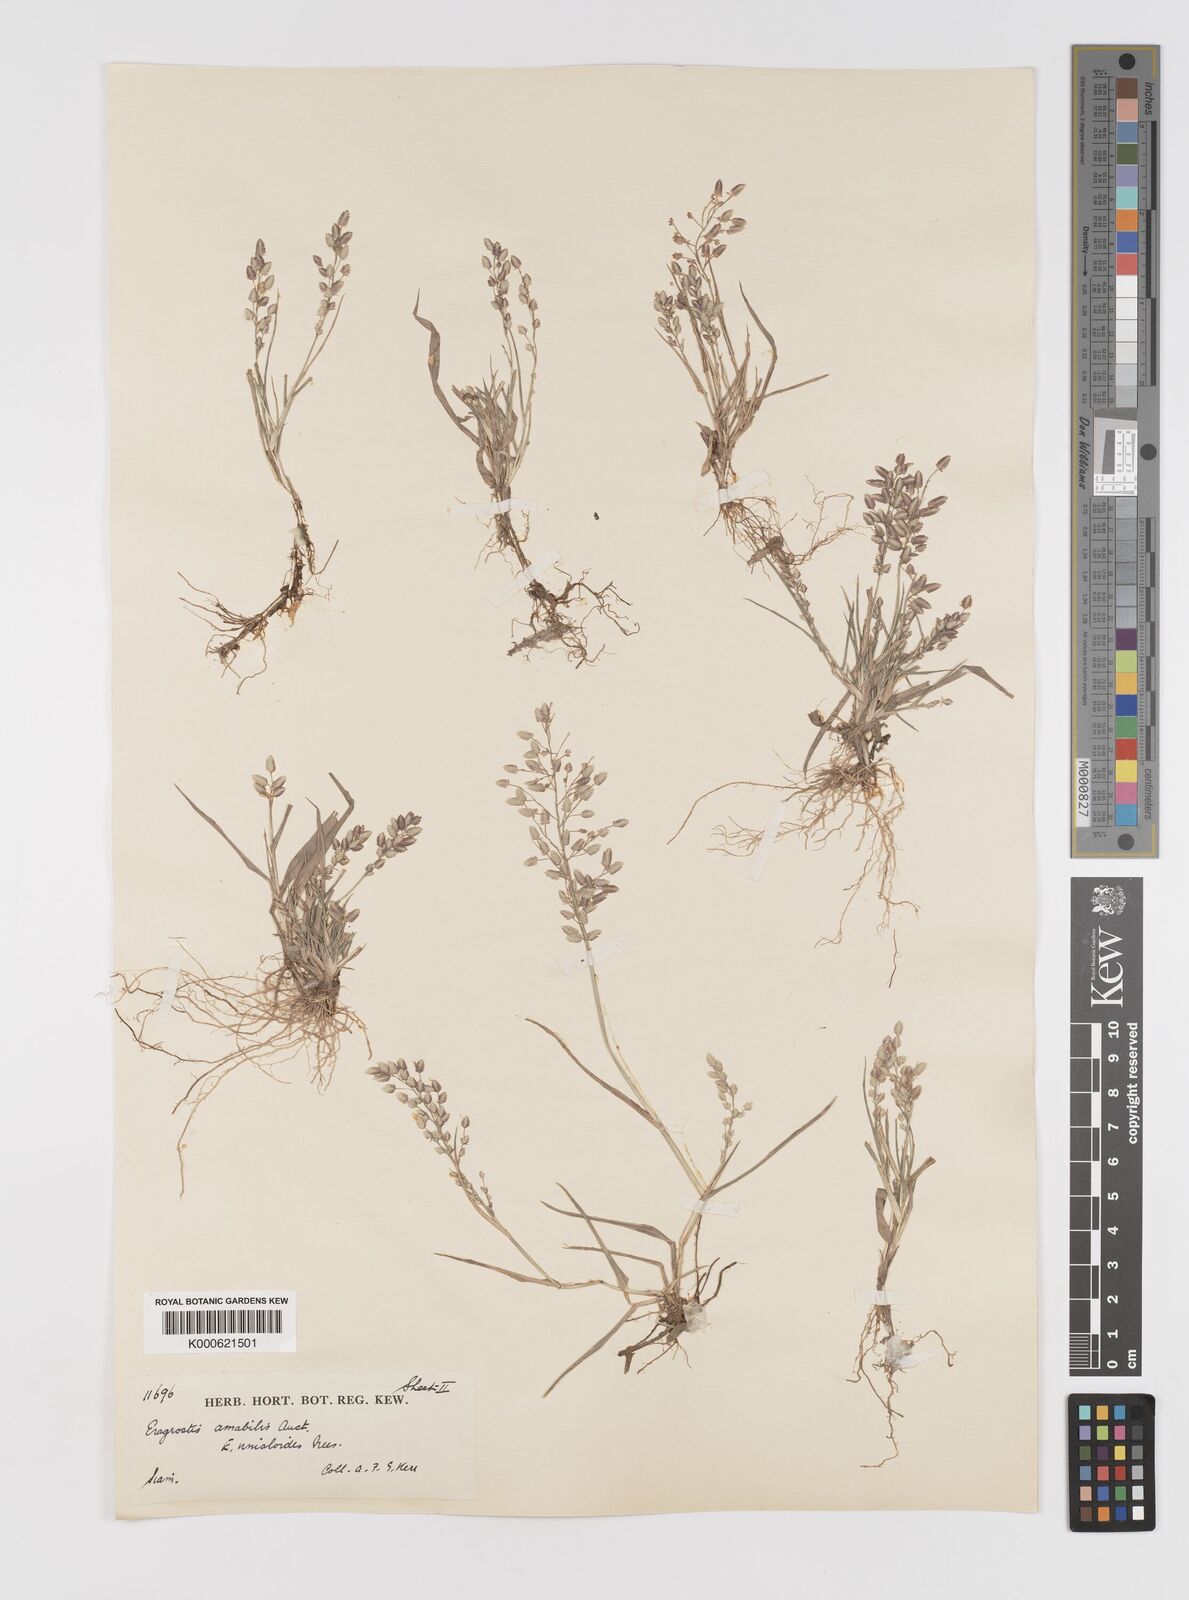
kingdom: Plantae
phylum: Tracheophyta
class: Liliopsida
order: Poales
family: Poaceae
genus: Eragrostis
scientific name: Eragrostis unioloides
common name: Chinese lovegrass
